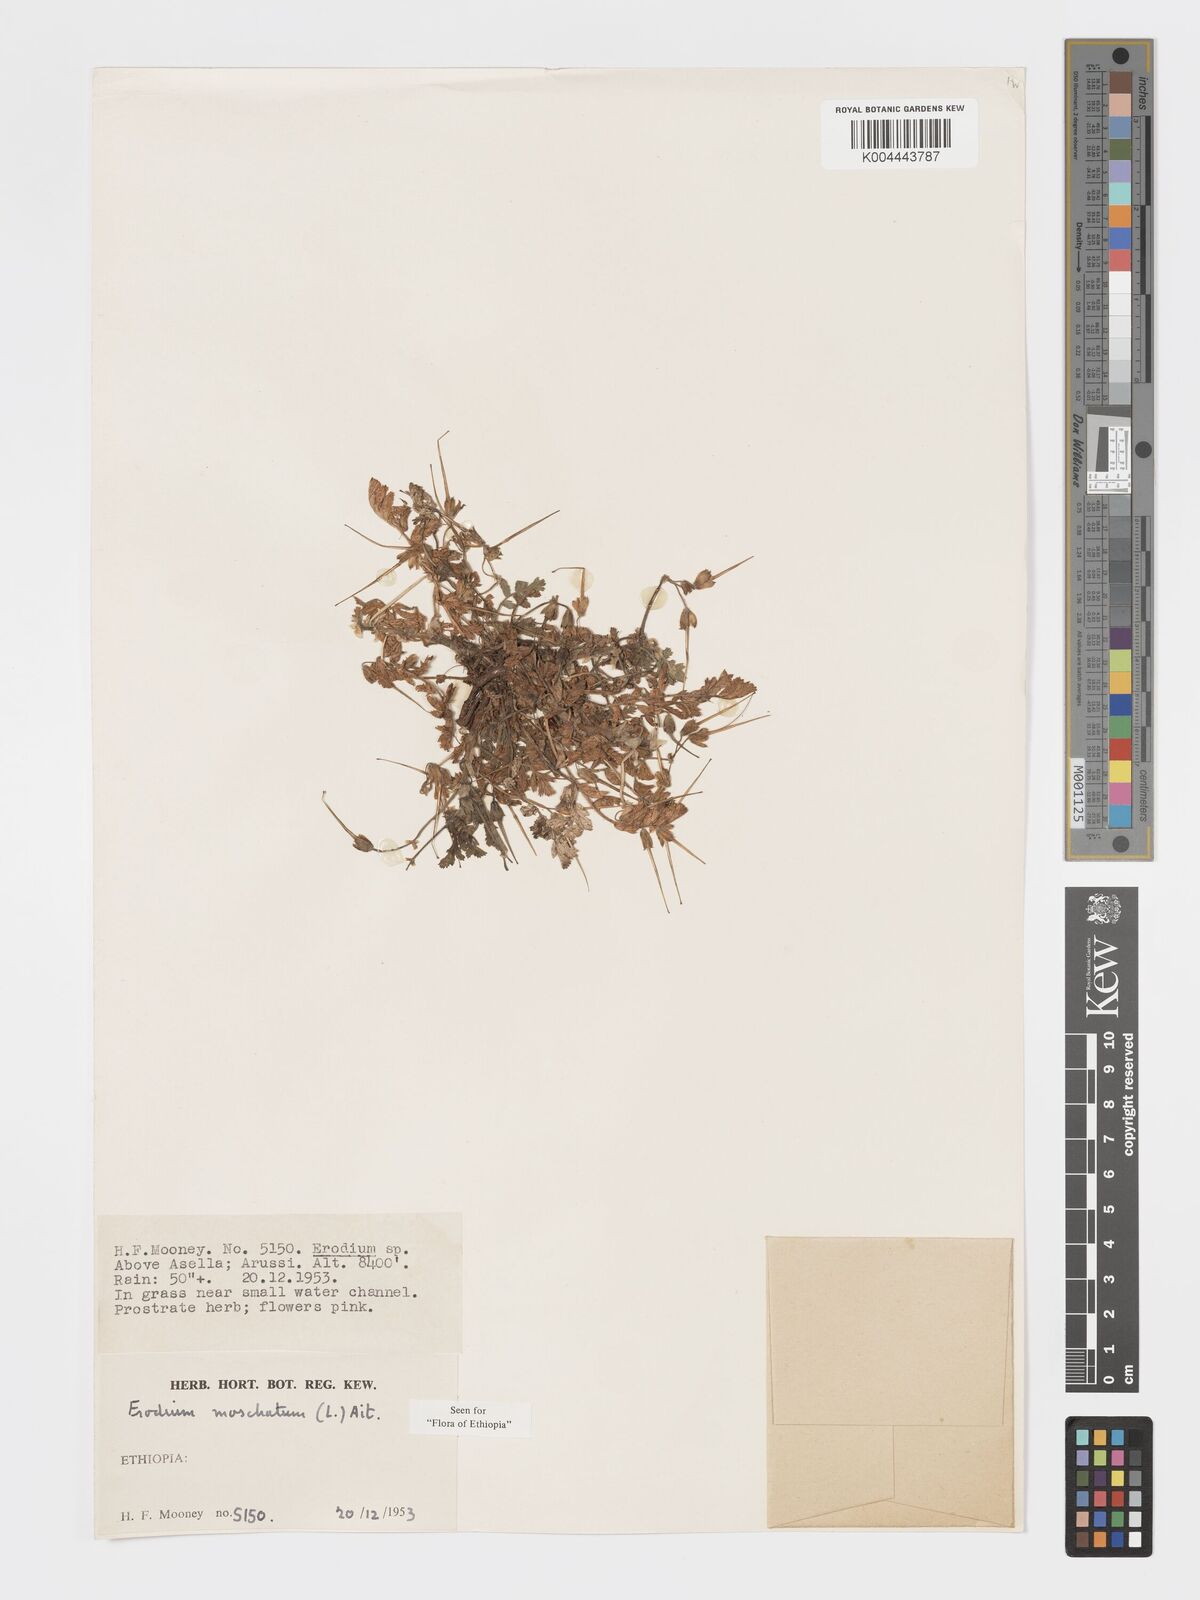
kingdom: Plantae
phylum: Tracheophyta
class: Magnoliopsida
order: Geraniales
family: Geraniaceae
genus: Erodium
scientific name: Erodium moschatum
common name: Musk stork's-bill
